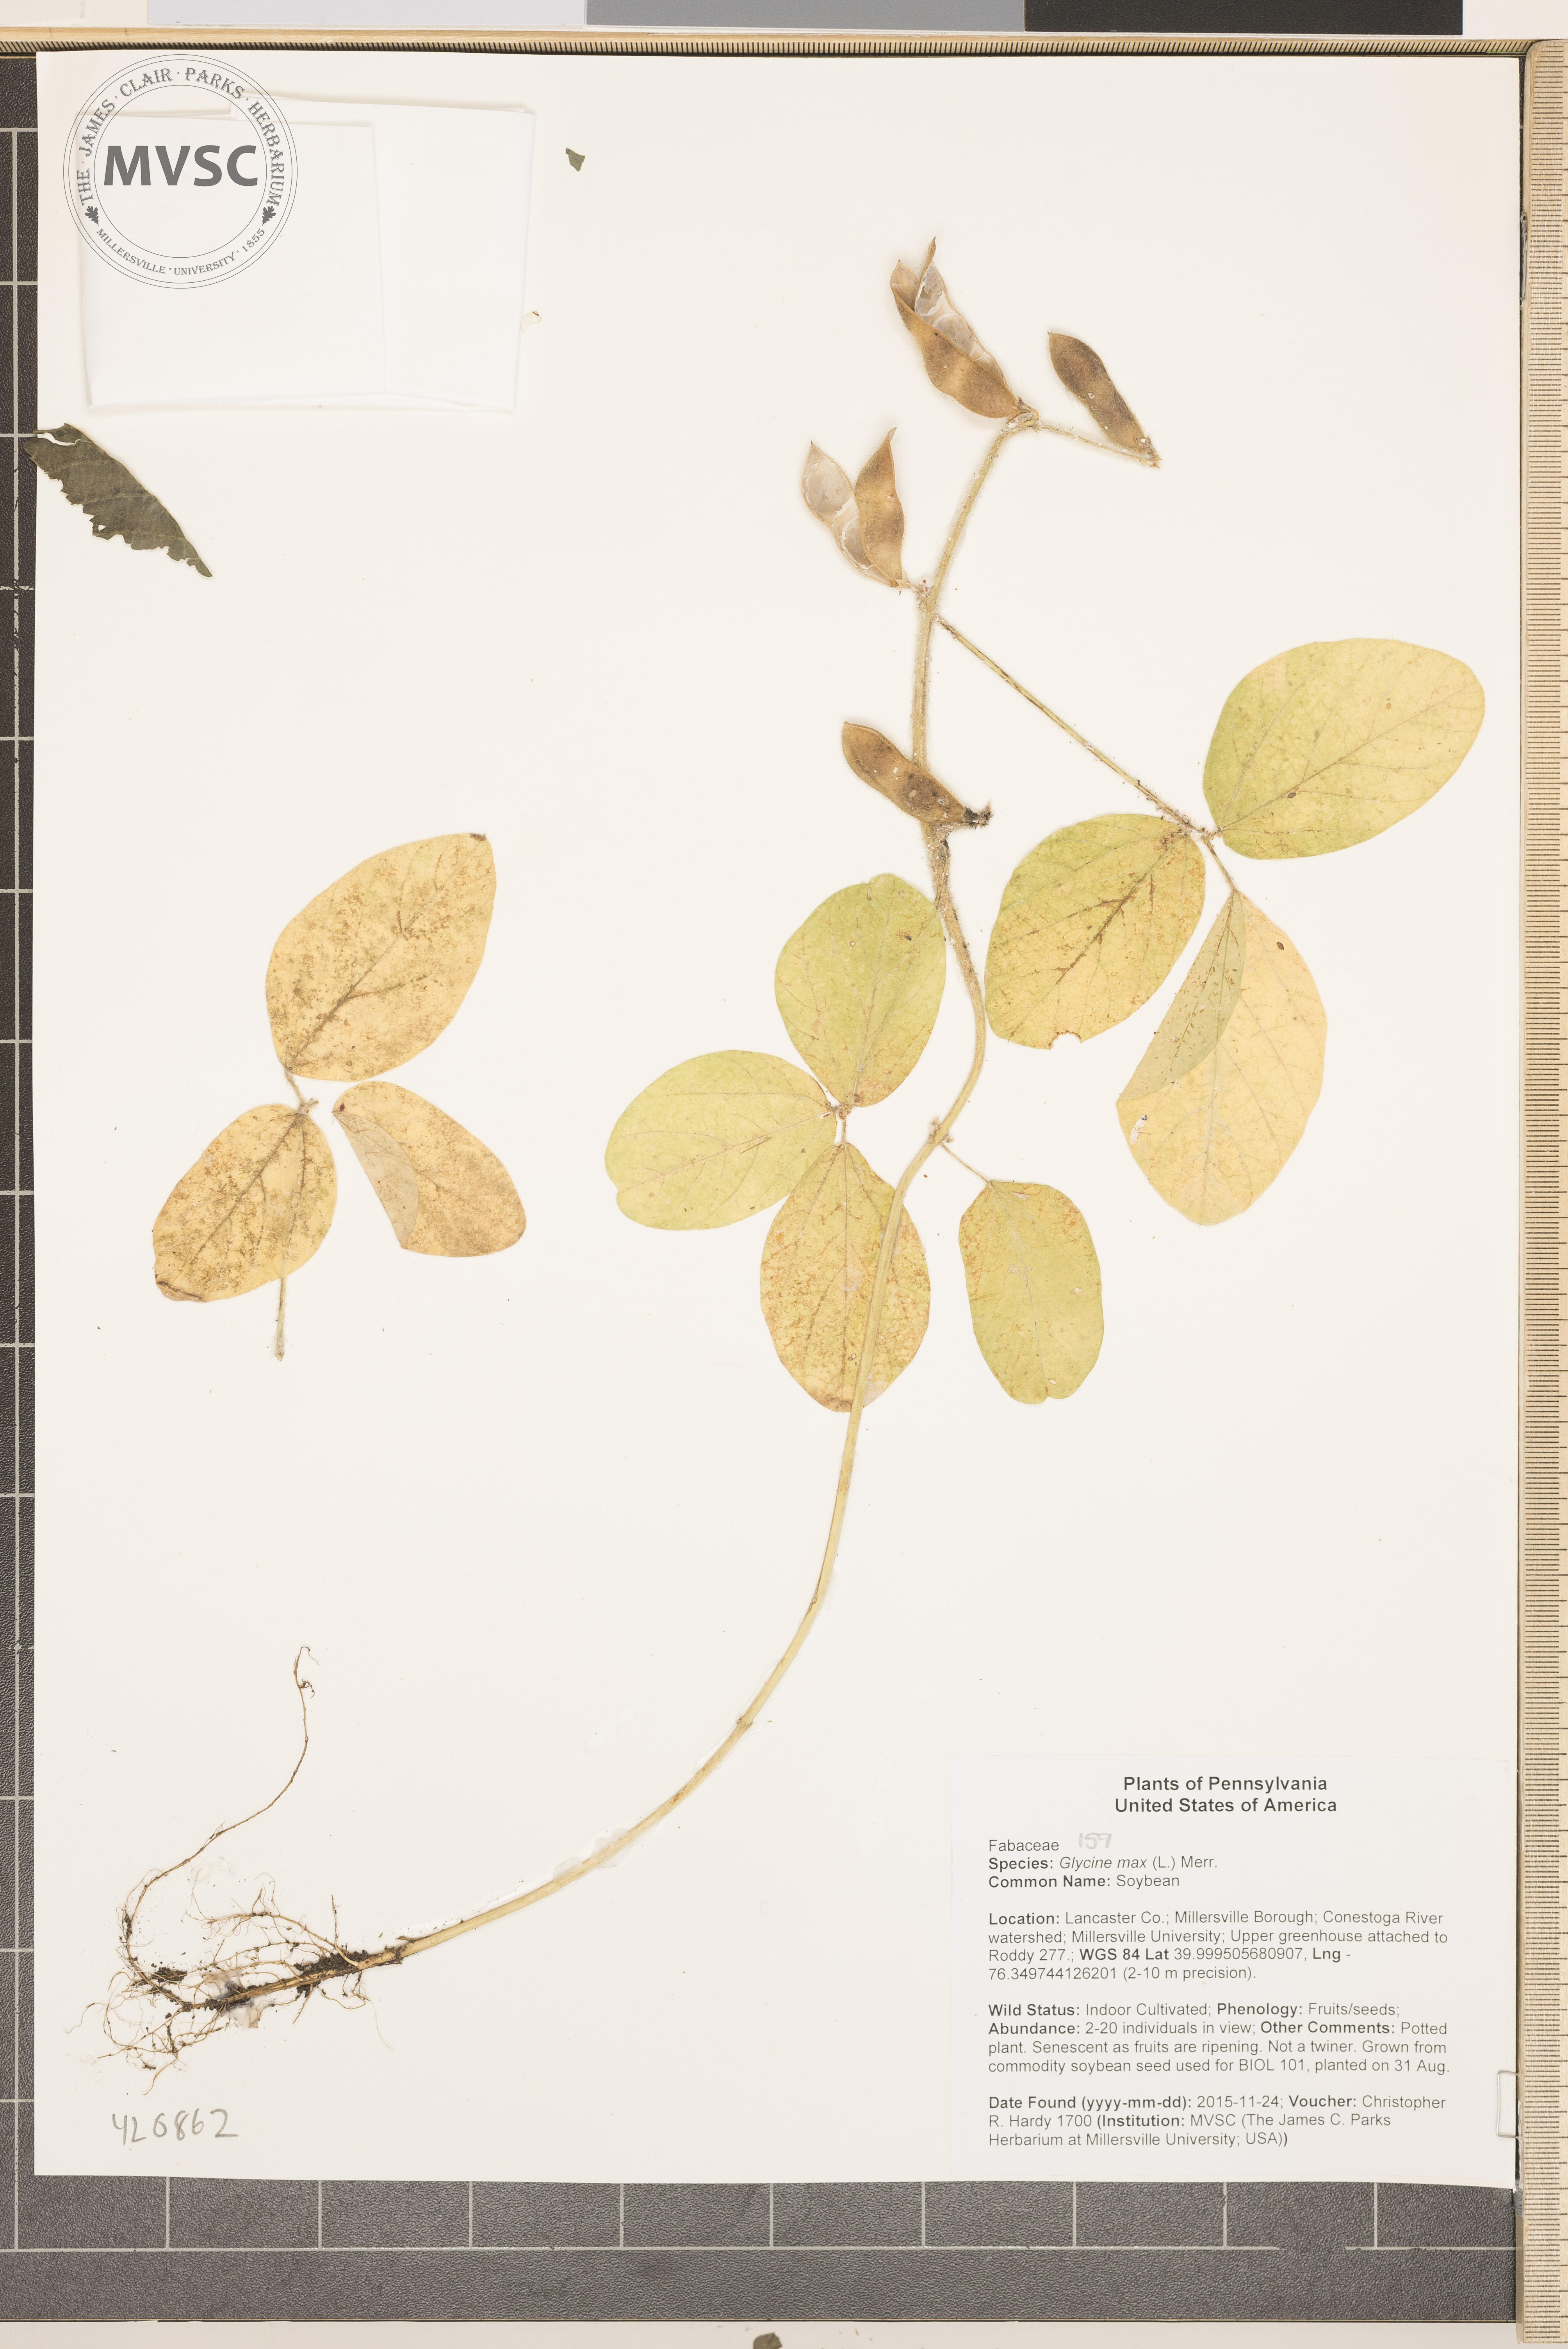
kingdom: Plantae
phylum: Tracheophyta
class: Magnoliopsida
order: Fabales
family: Fabaceae
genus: Glycine
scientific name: Glycine max
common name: Soybean
